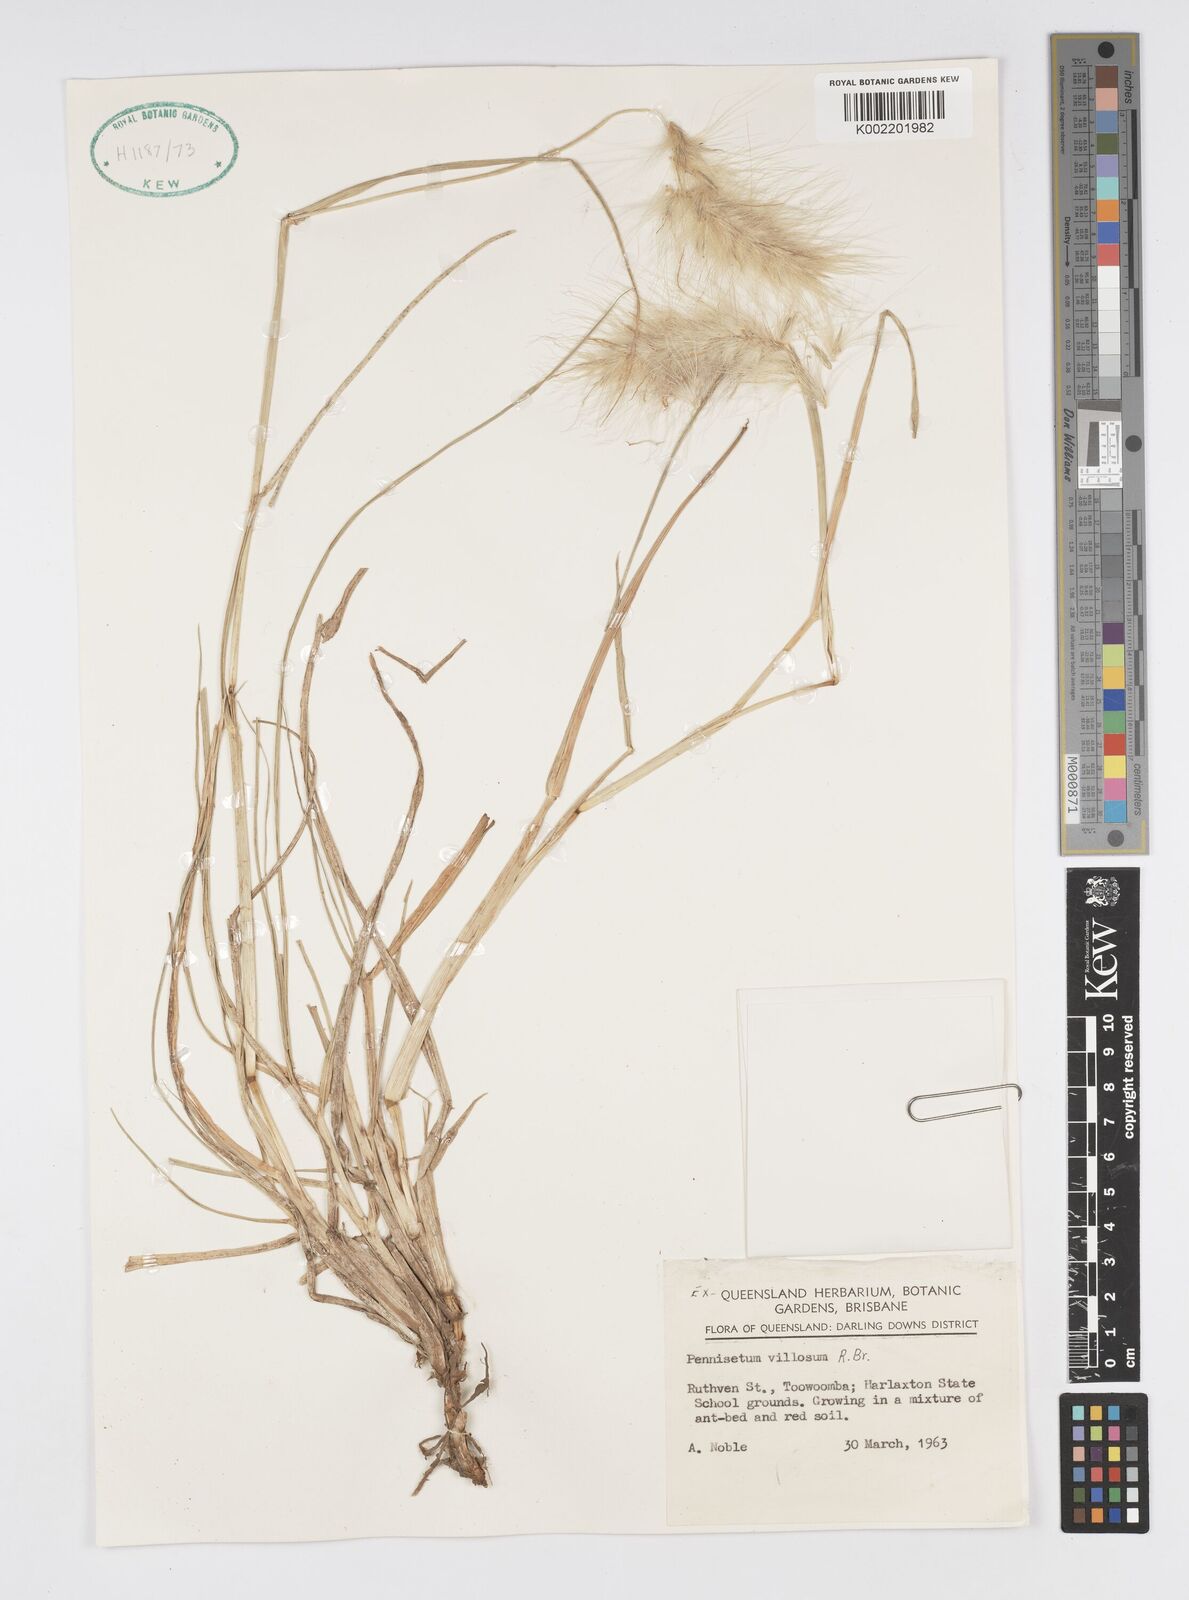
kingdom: Plantae
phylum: Tracheophyta
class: Liliopsida
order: Poales
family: Poaceae
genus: Cenchrus
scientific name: Cenchrus longisetus
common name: Feathertop
